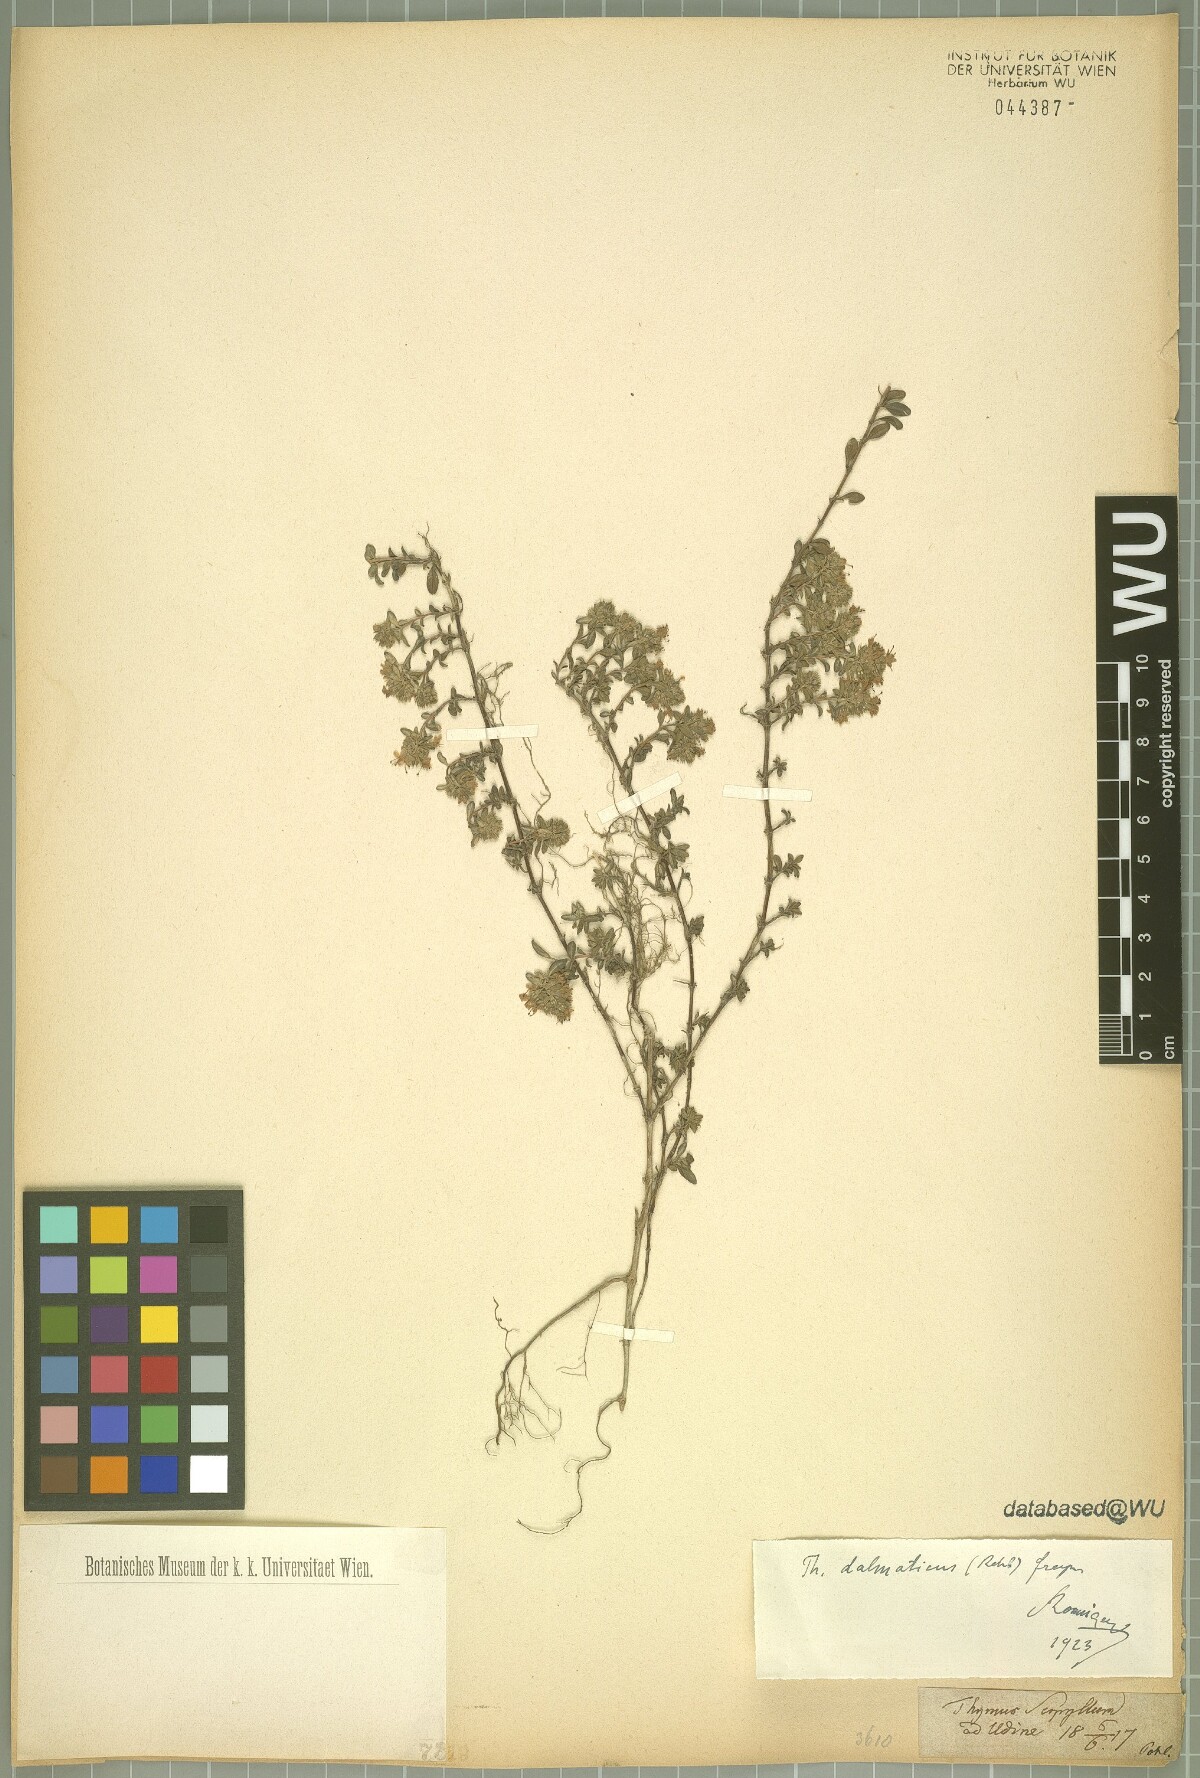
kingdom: Plantae
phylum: Tracheophyta
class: Magnoliopsida
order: Lamiales
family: Lamiaceae
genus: Thymus
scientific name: Thymus longicaulis
